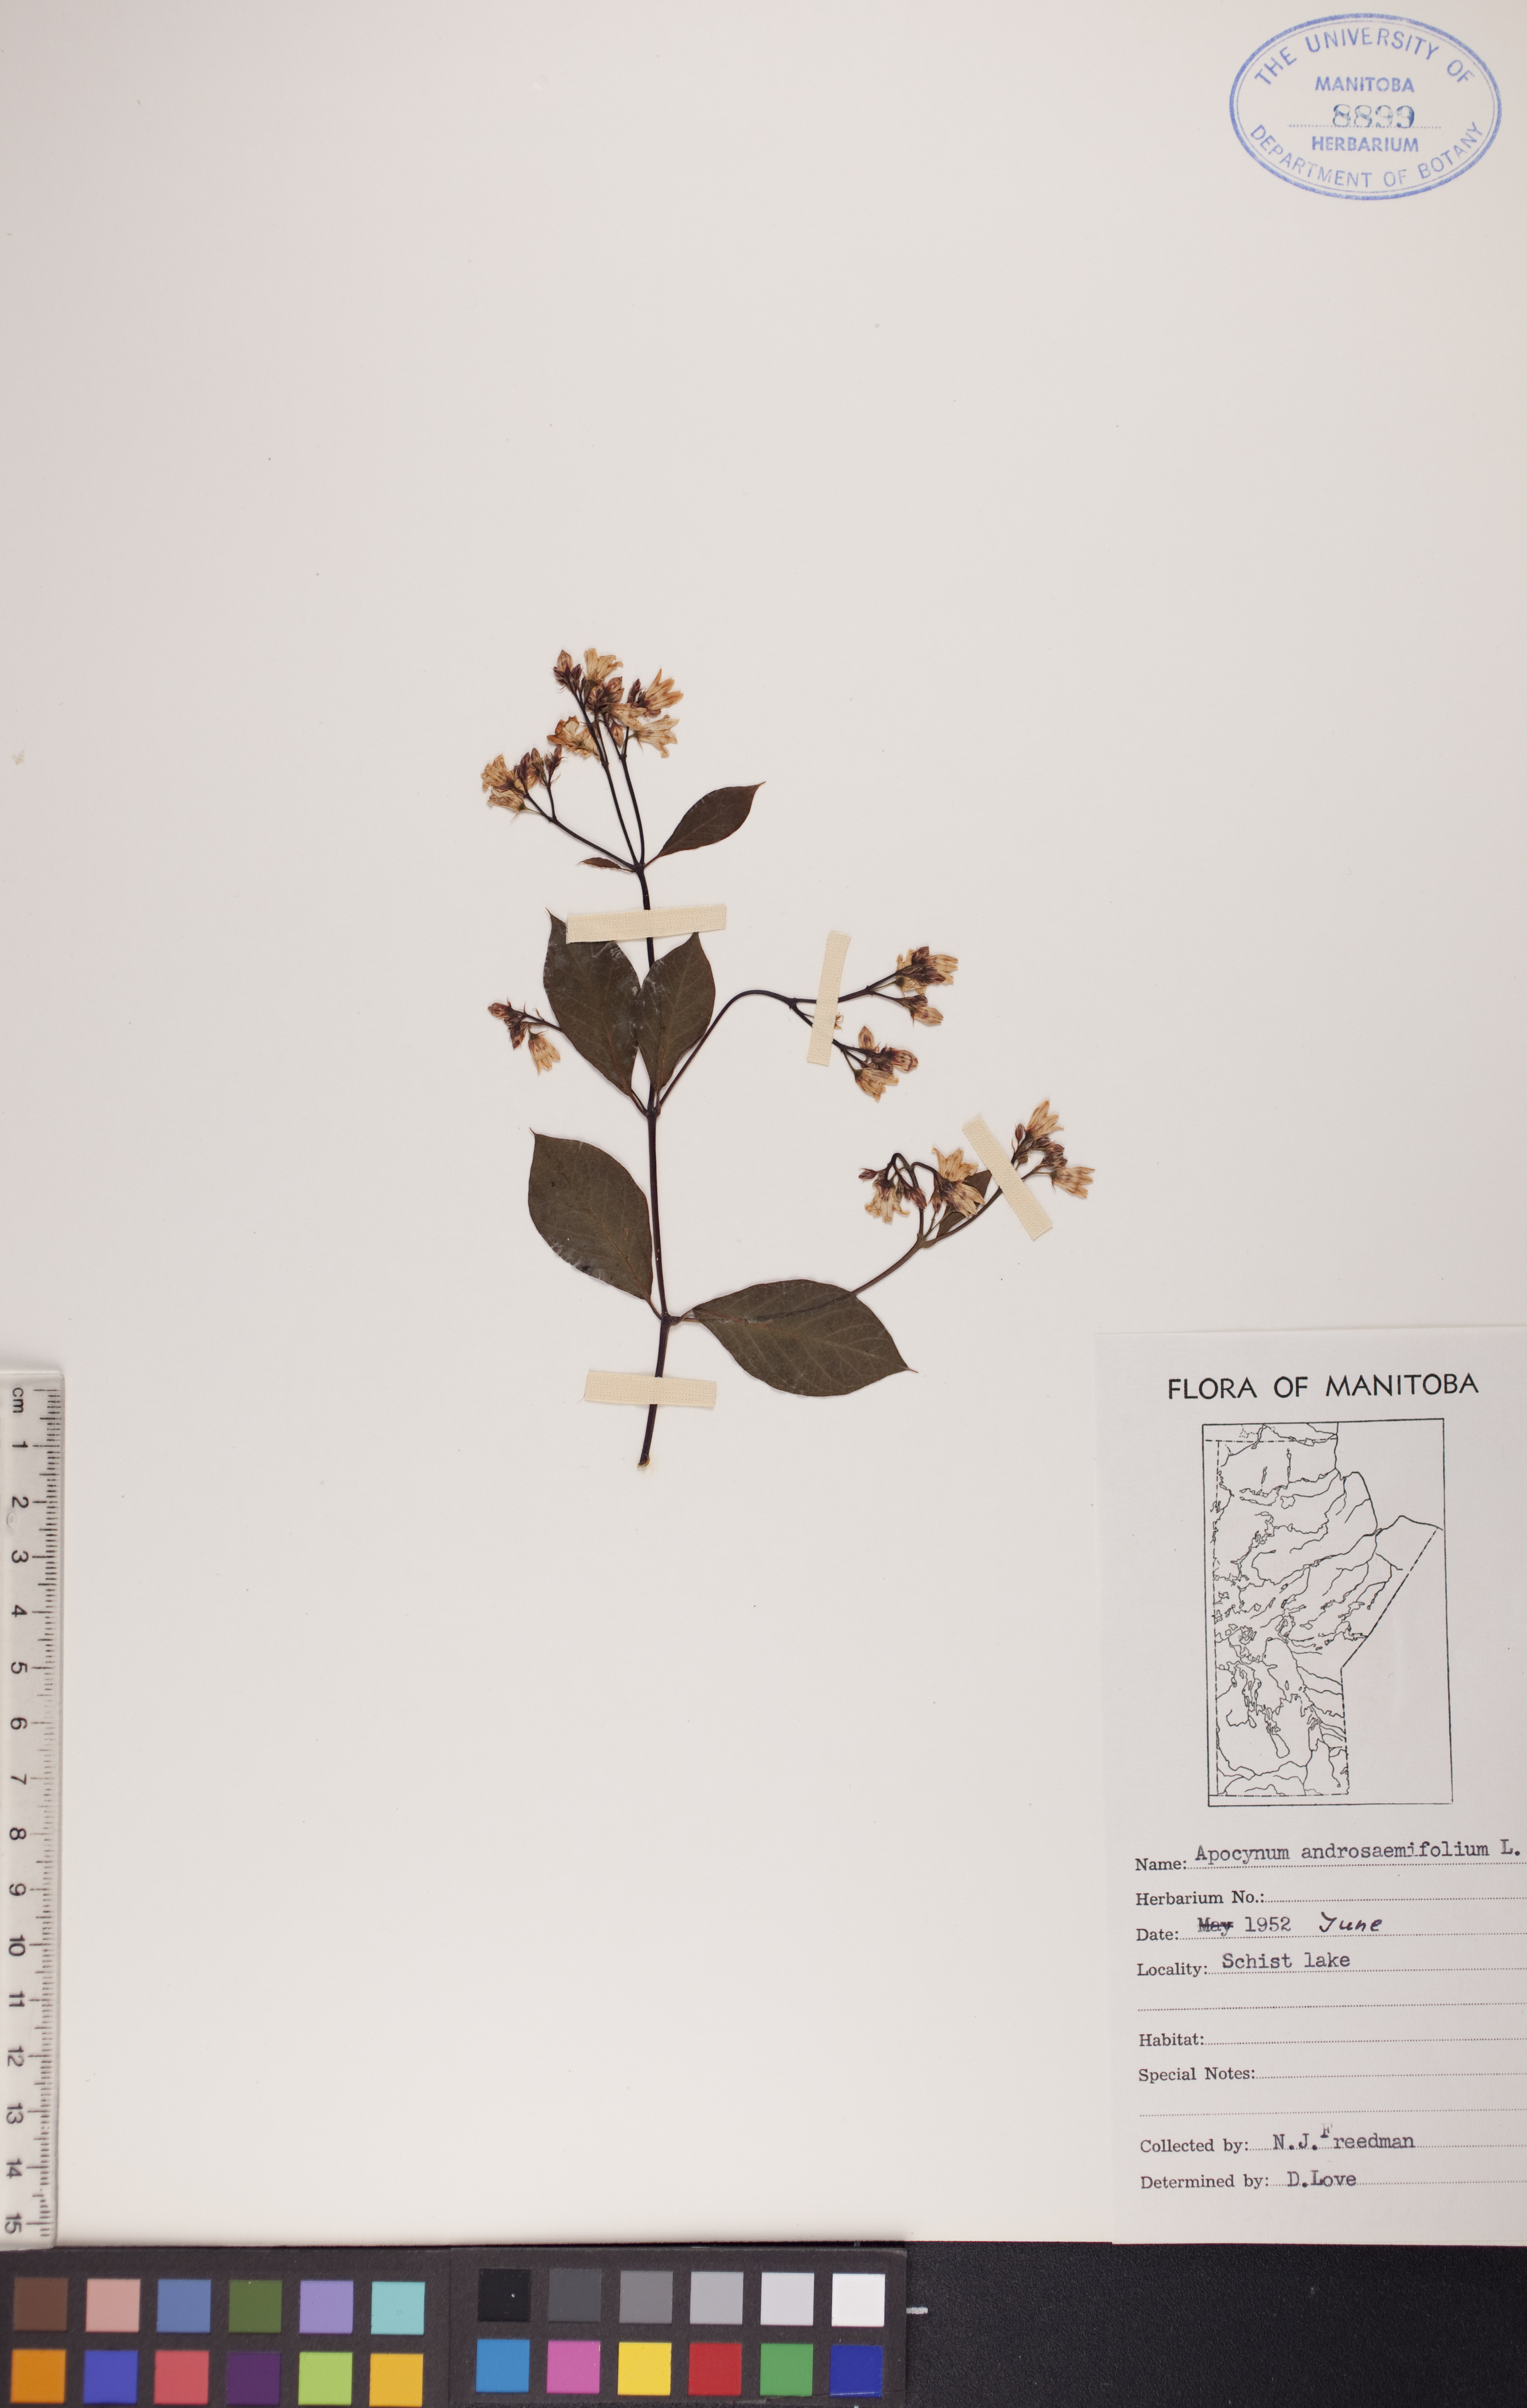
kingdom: Plantae
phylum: Tracheophyta
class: Magnoliopsida
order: Gentianales
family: Apocynaceae
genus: Apocynum
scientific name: Apocynum androsaemifolium
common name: Spreading dogbane
